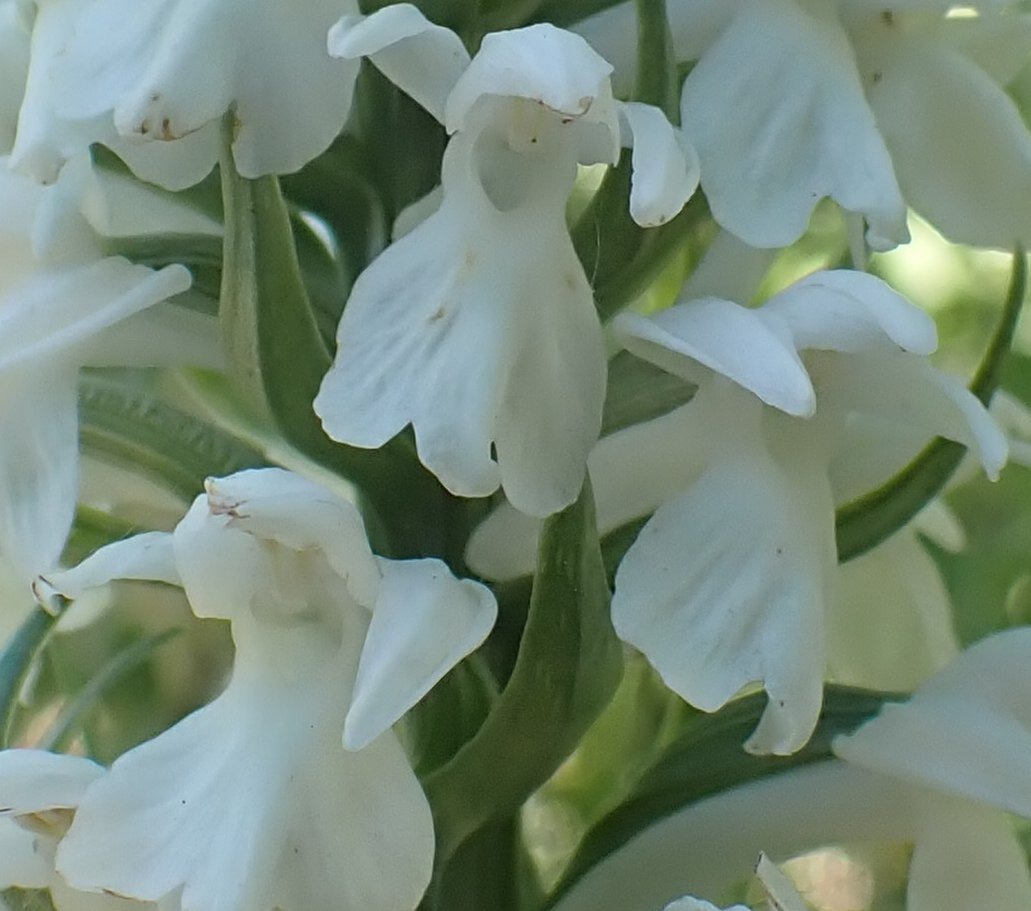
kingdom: Plantae
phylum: Tracheophyta
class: Liliopsida
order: Asparagales
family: Orchidaceae
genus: Dactylorhiza
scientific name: Dactylorhiza majalis
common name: Thy-gøgeurt
